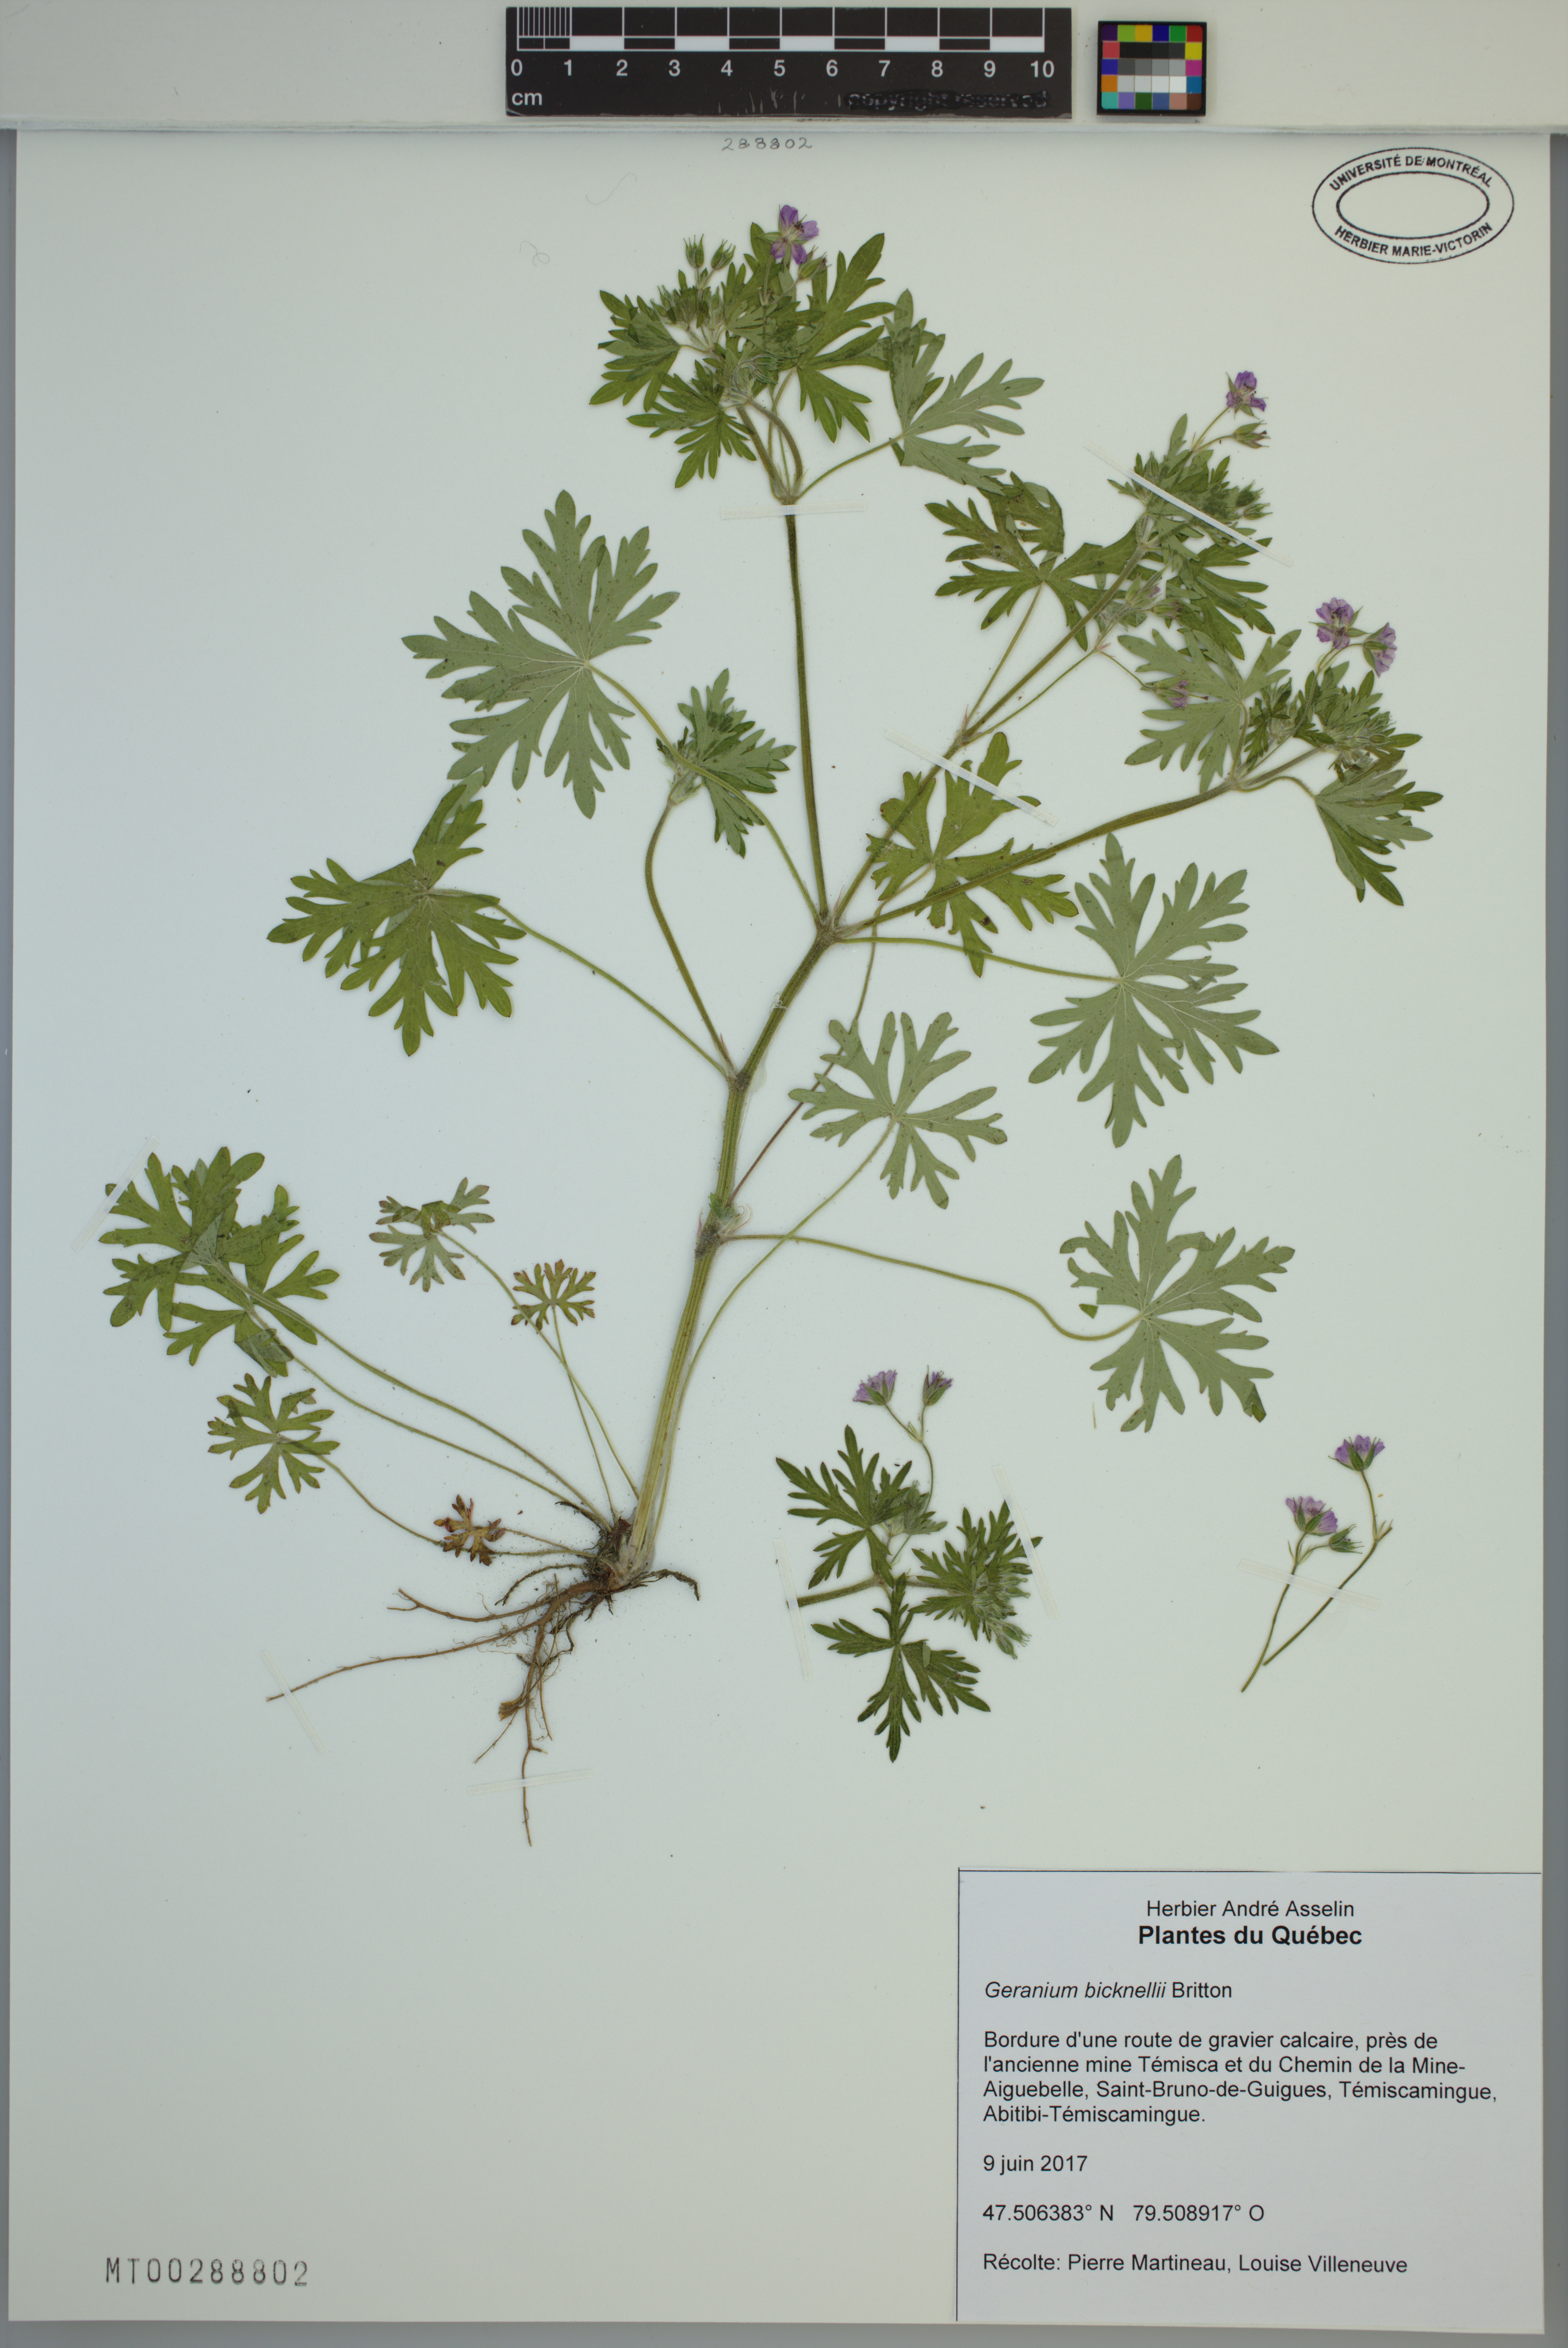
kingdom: Plantae
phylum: Tracheophyta
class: Magnoliopsida
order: Geraniales
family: Geraniaceae
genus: Geranium
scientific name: Geranium bicknellii
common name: Bicknell's cranesbill
